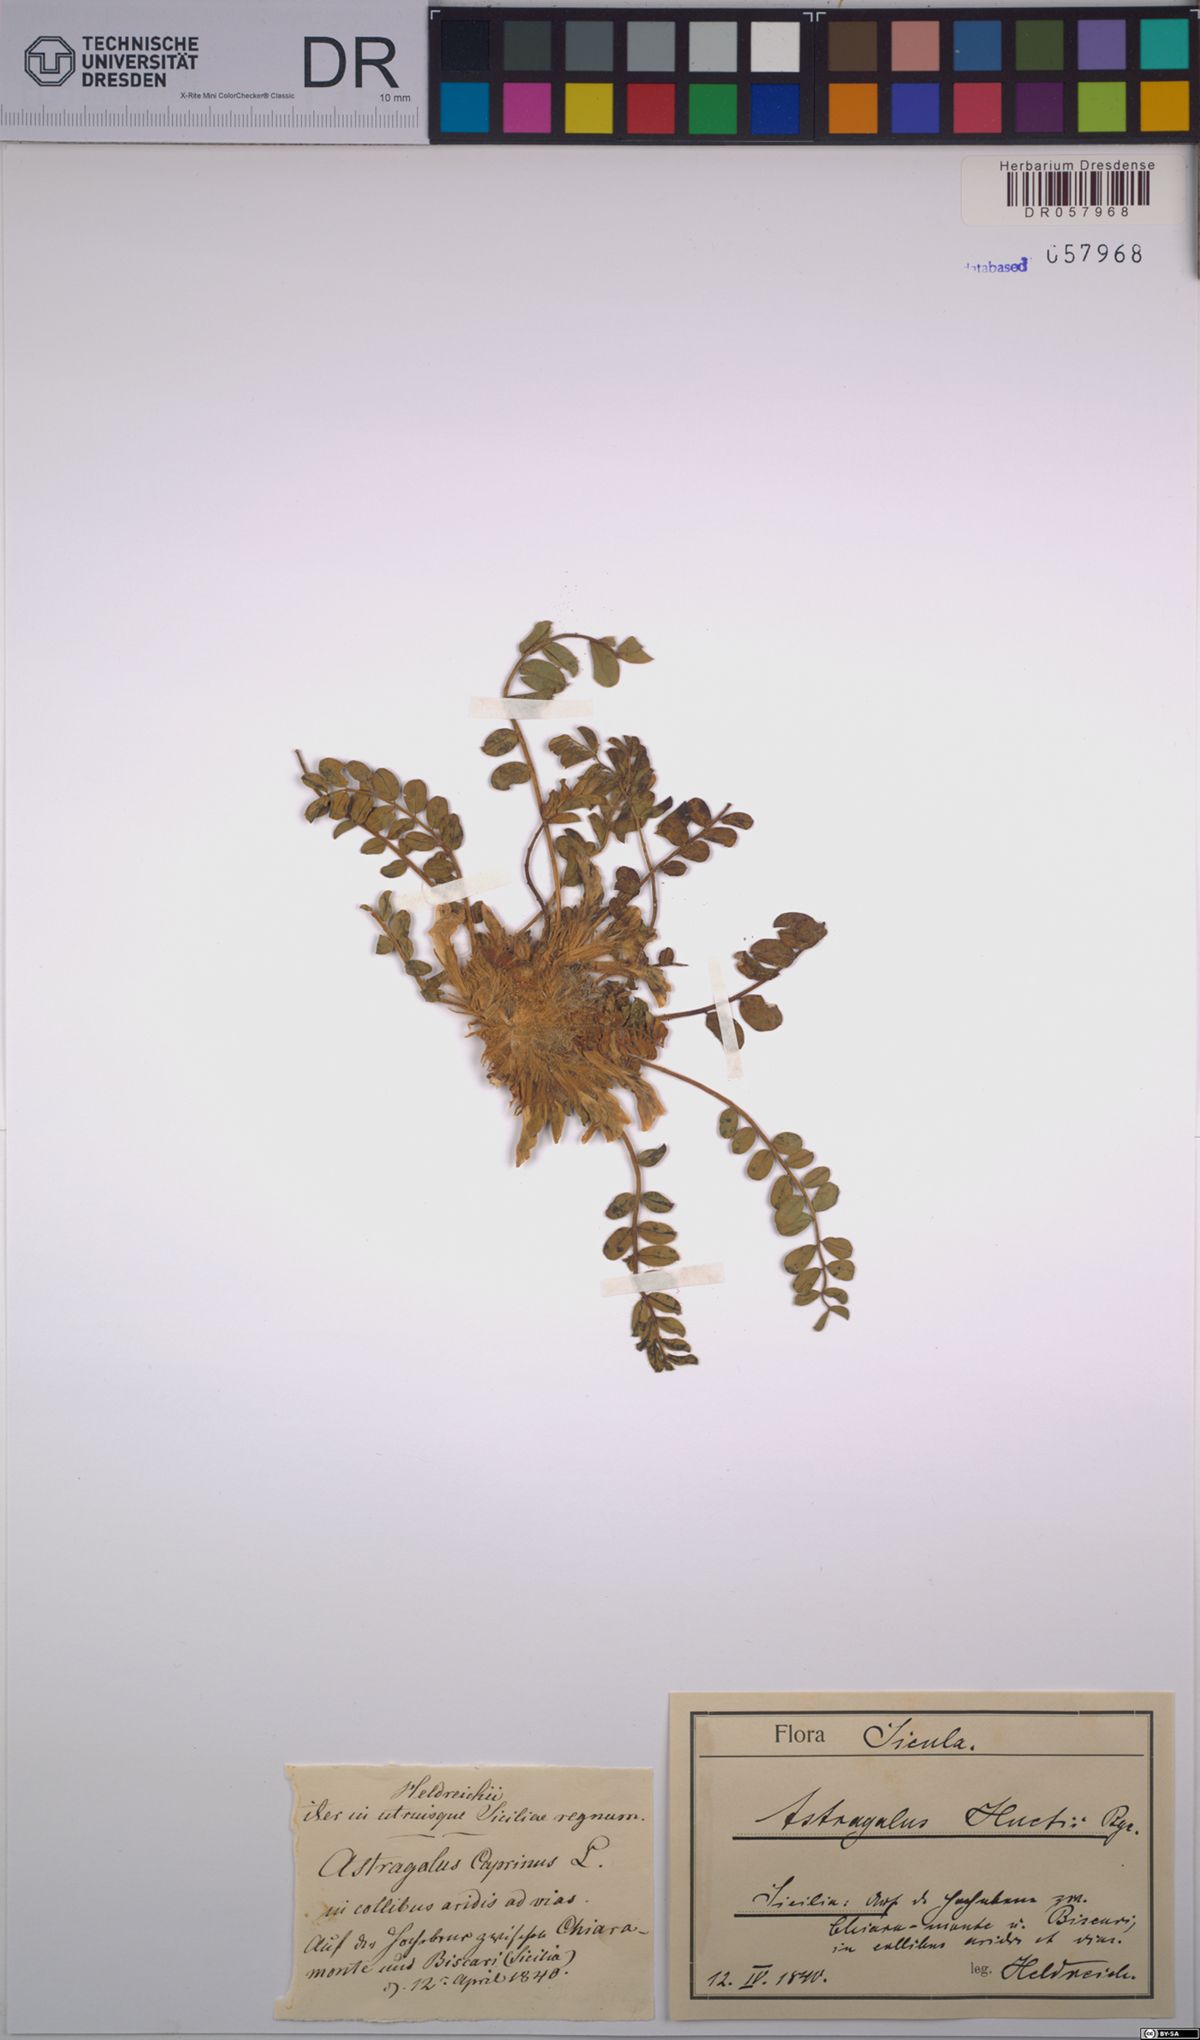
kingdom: Plantae
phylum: Tracheophyta
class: Magnoliopsida
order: Fabales
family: Fabaceae
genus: Astragalus
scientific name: Astragalus caprinus
